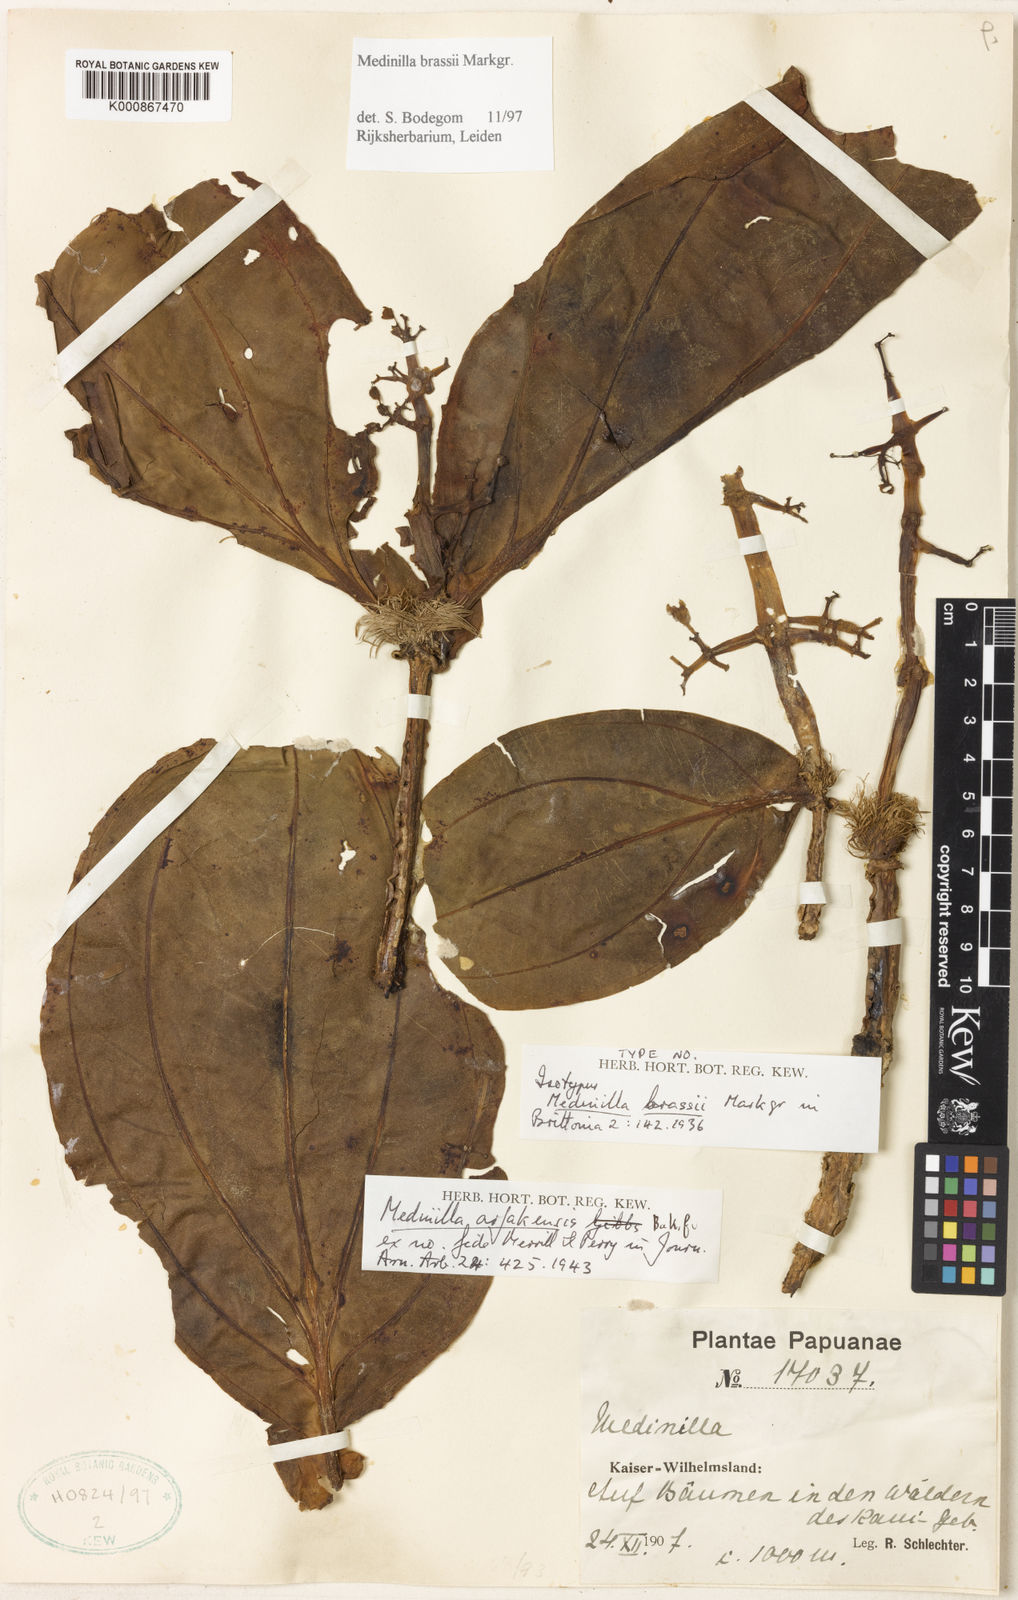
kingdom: Plantae
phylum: Tracheophyta
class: Magnoliopsida
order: Myrtales
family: Melastomataceae
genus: Medinilla
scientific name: Medinilla brassii
